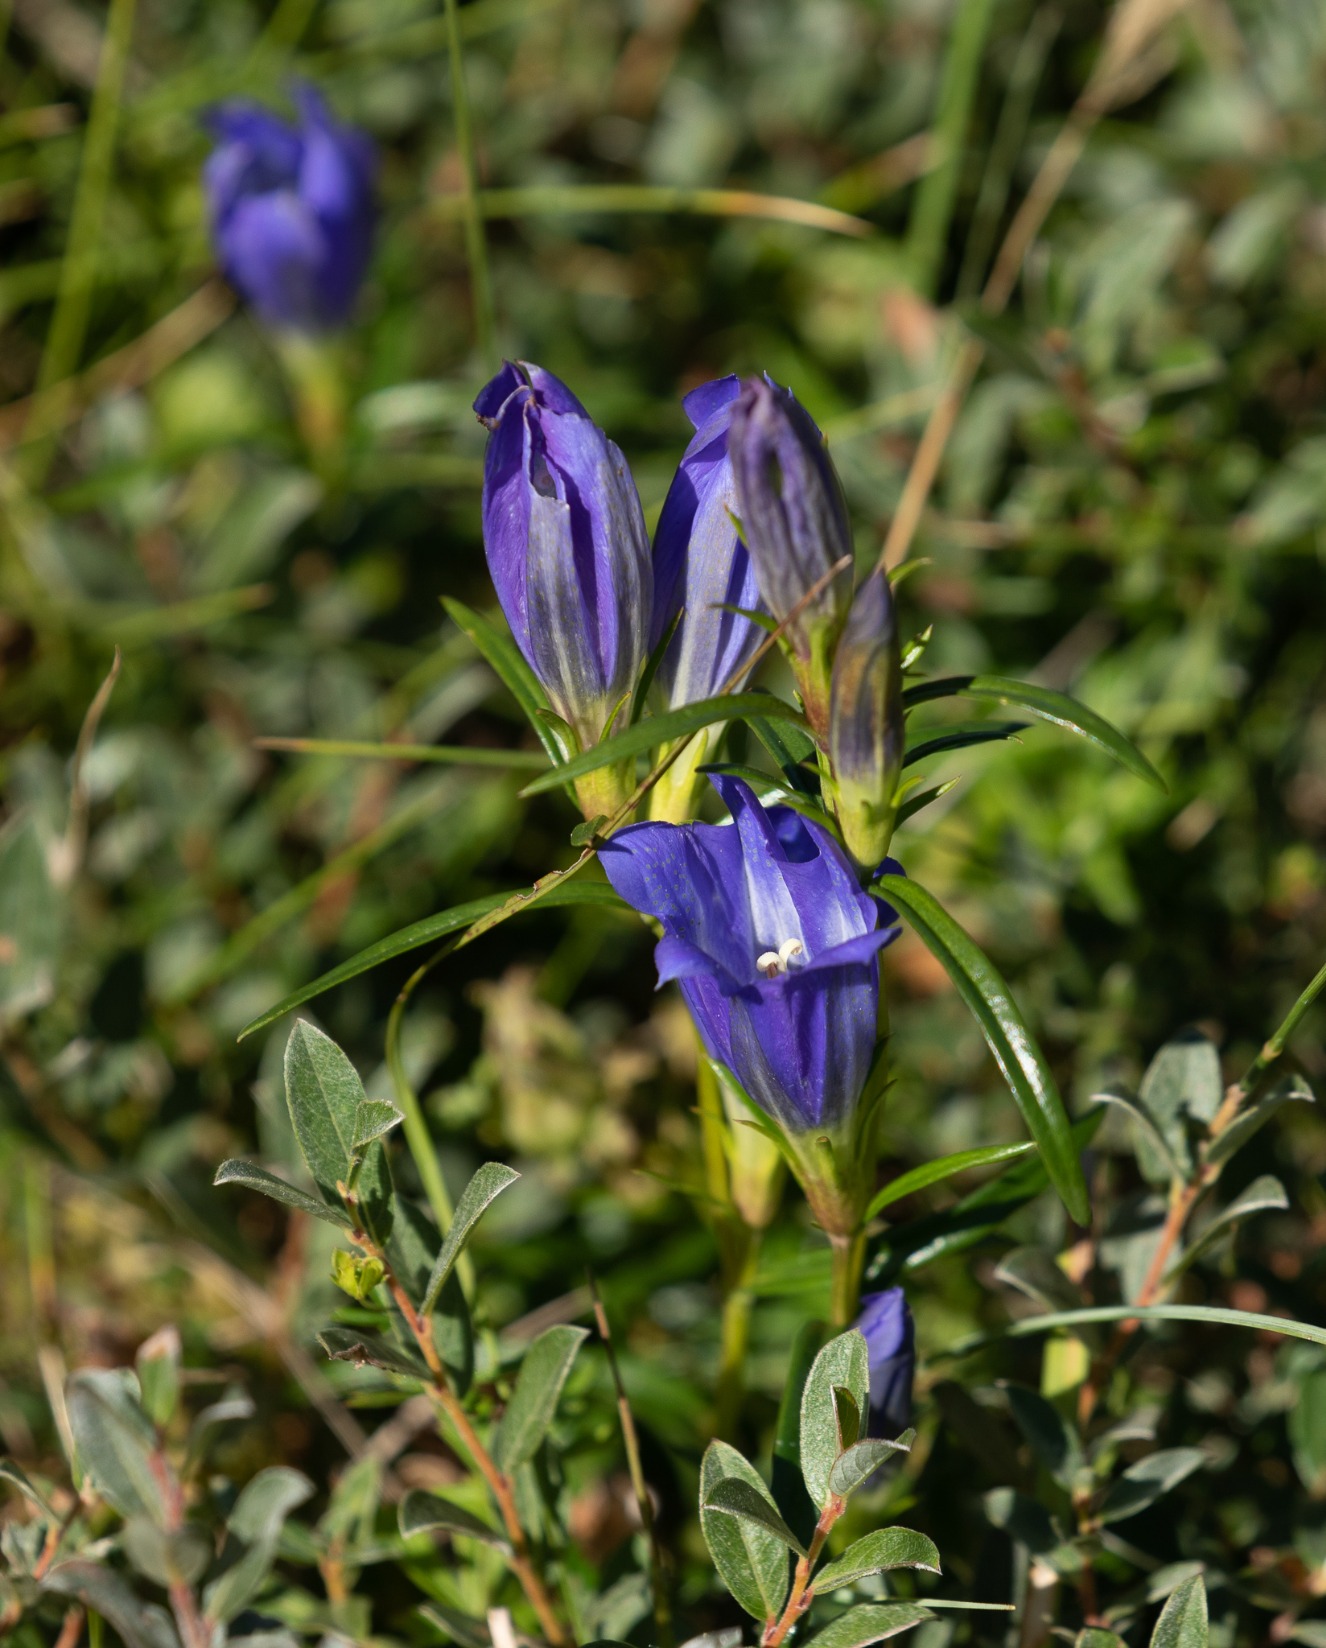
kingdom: Plantae
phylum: Tracheophyta
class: Magnoliopsida
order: Gentianales
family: Gentianaceae
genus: Gentiana
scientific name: Gentiana pneumonanthe
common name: Klokke-ensian
